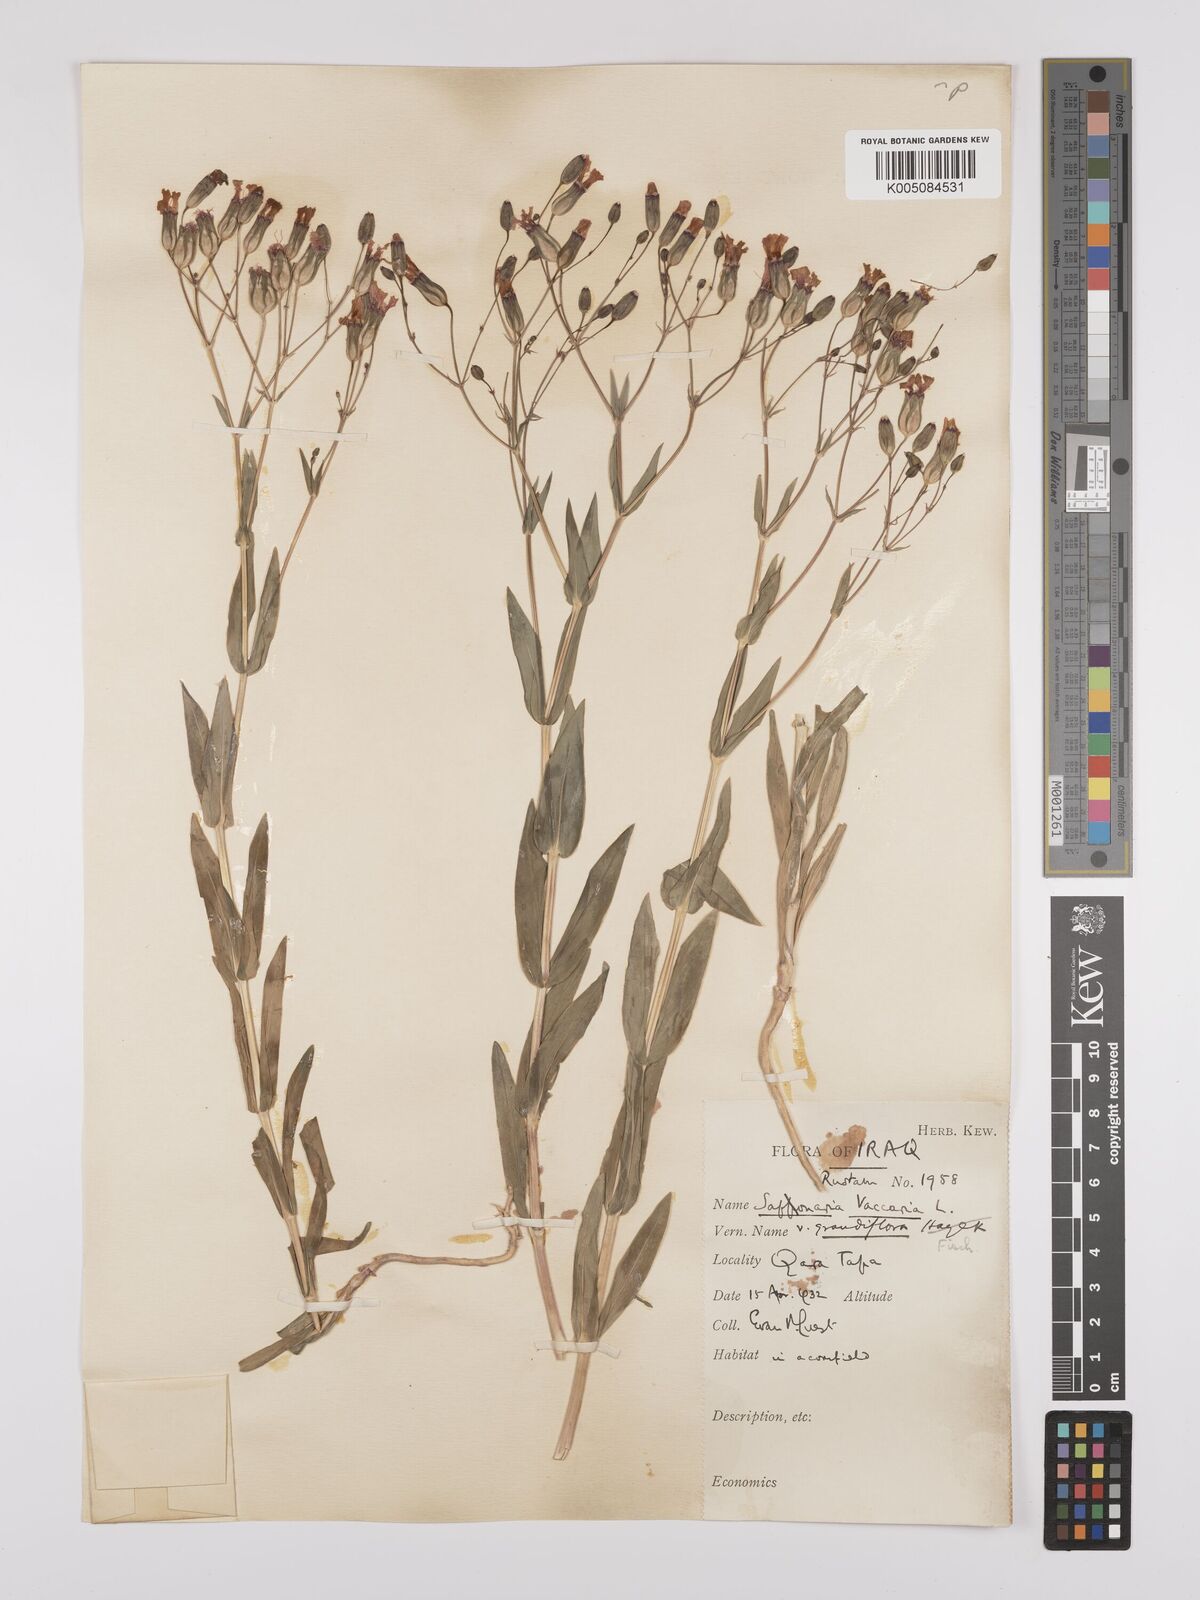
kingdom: Plantae
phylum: Tracheophyta
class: Magnoliopsida
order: Caryophyllales
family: Caryophyllaceae
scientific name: Caryophyllaceae
